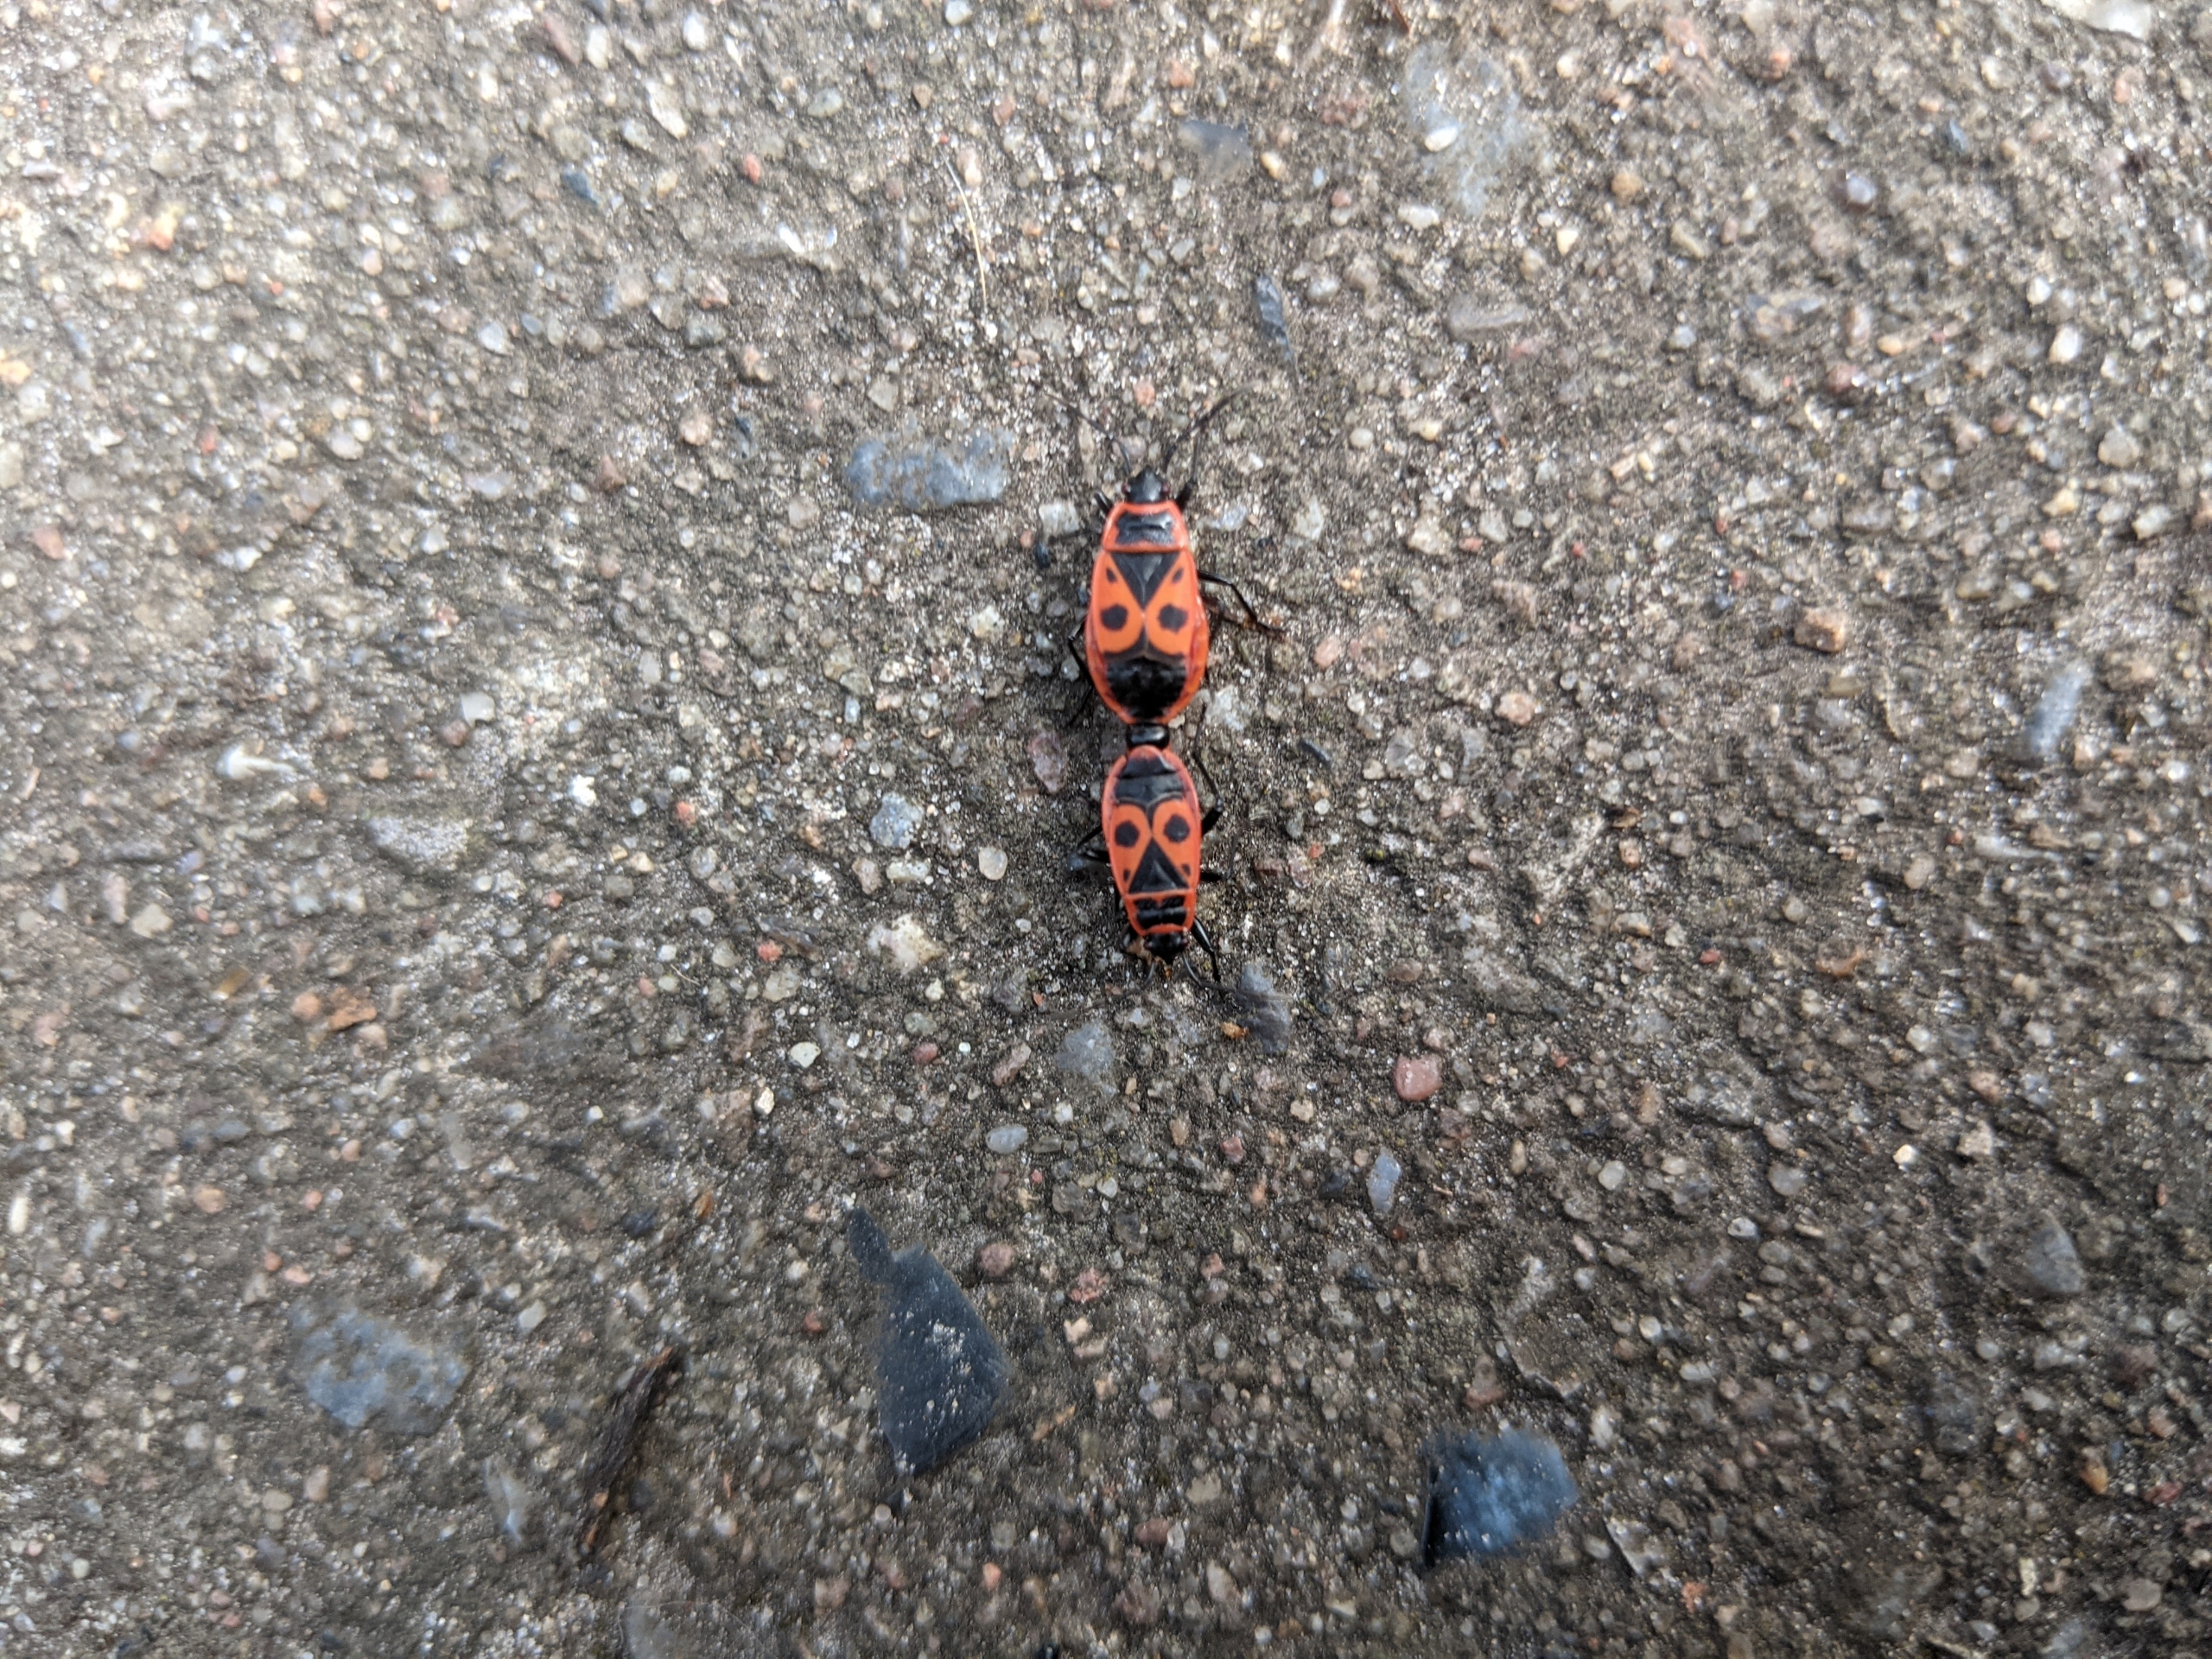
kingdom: Animalia
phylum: Arthropoda
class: Insecta
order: Hemiptera
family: Pyrrhocoridae
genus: Pyrrhocoris
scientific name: Pyrrhocoris apterus
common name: Ildtæge
